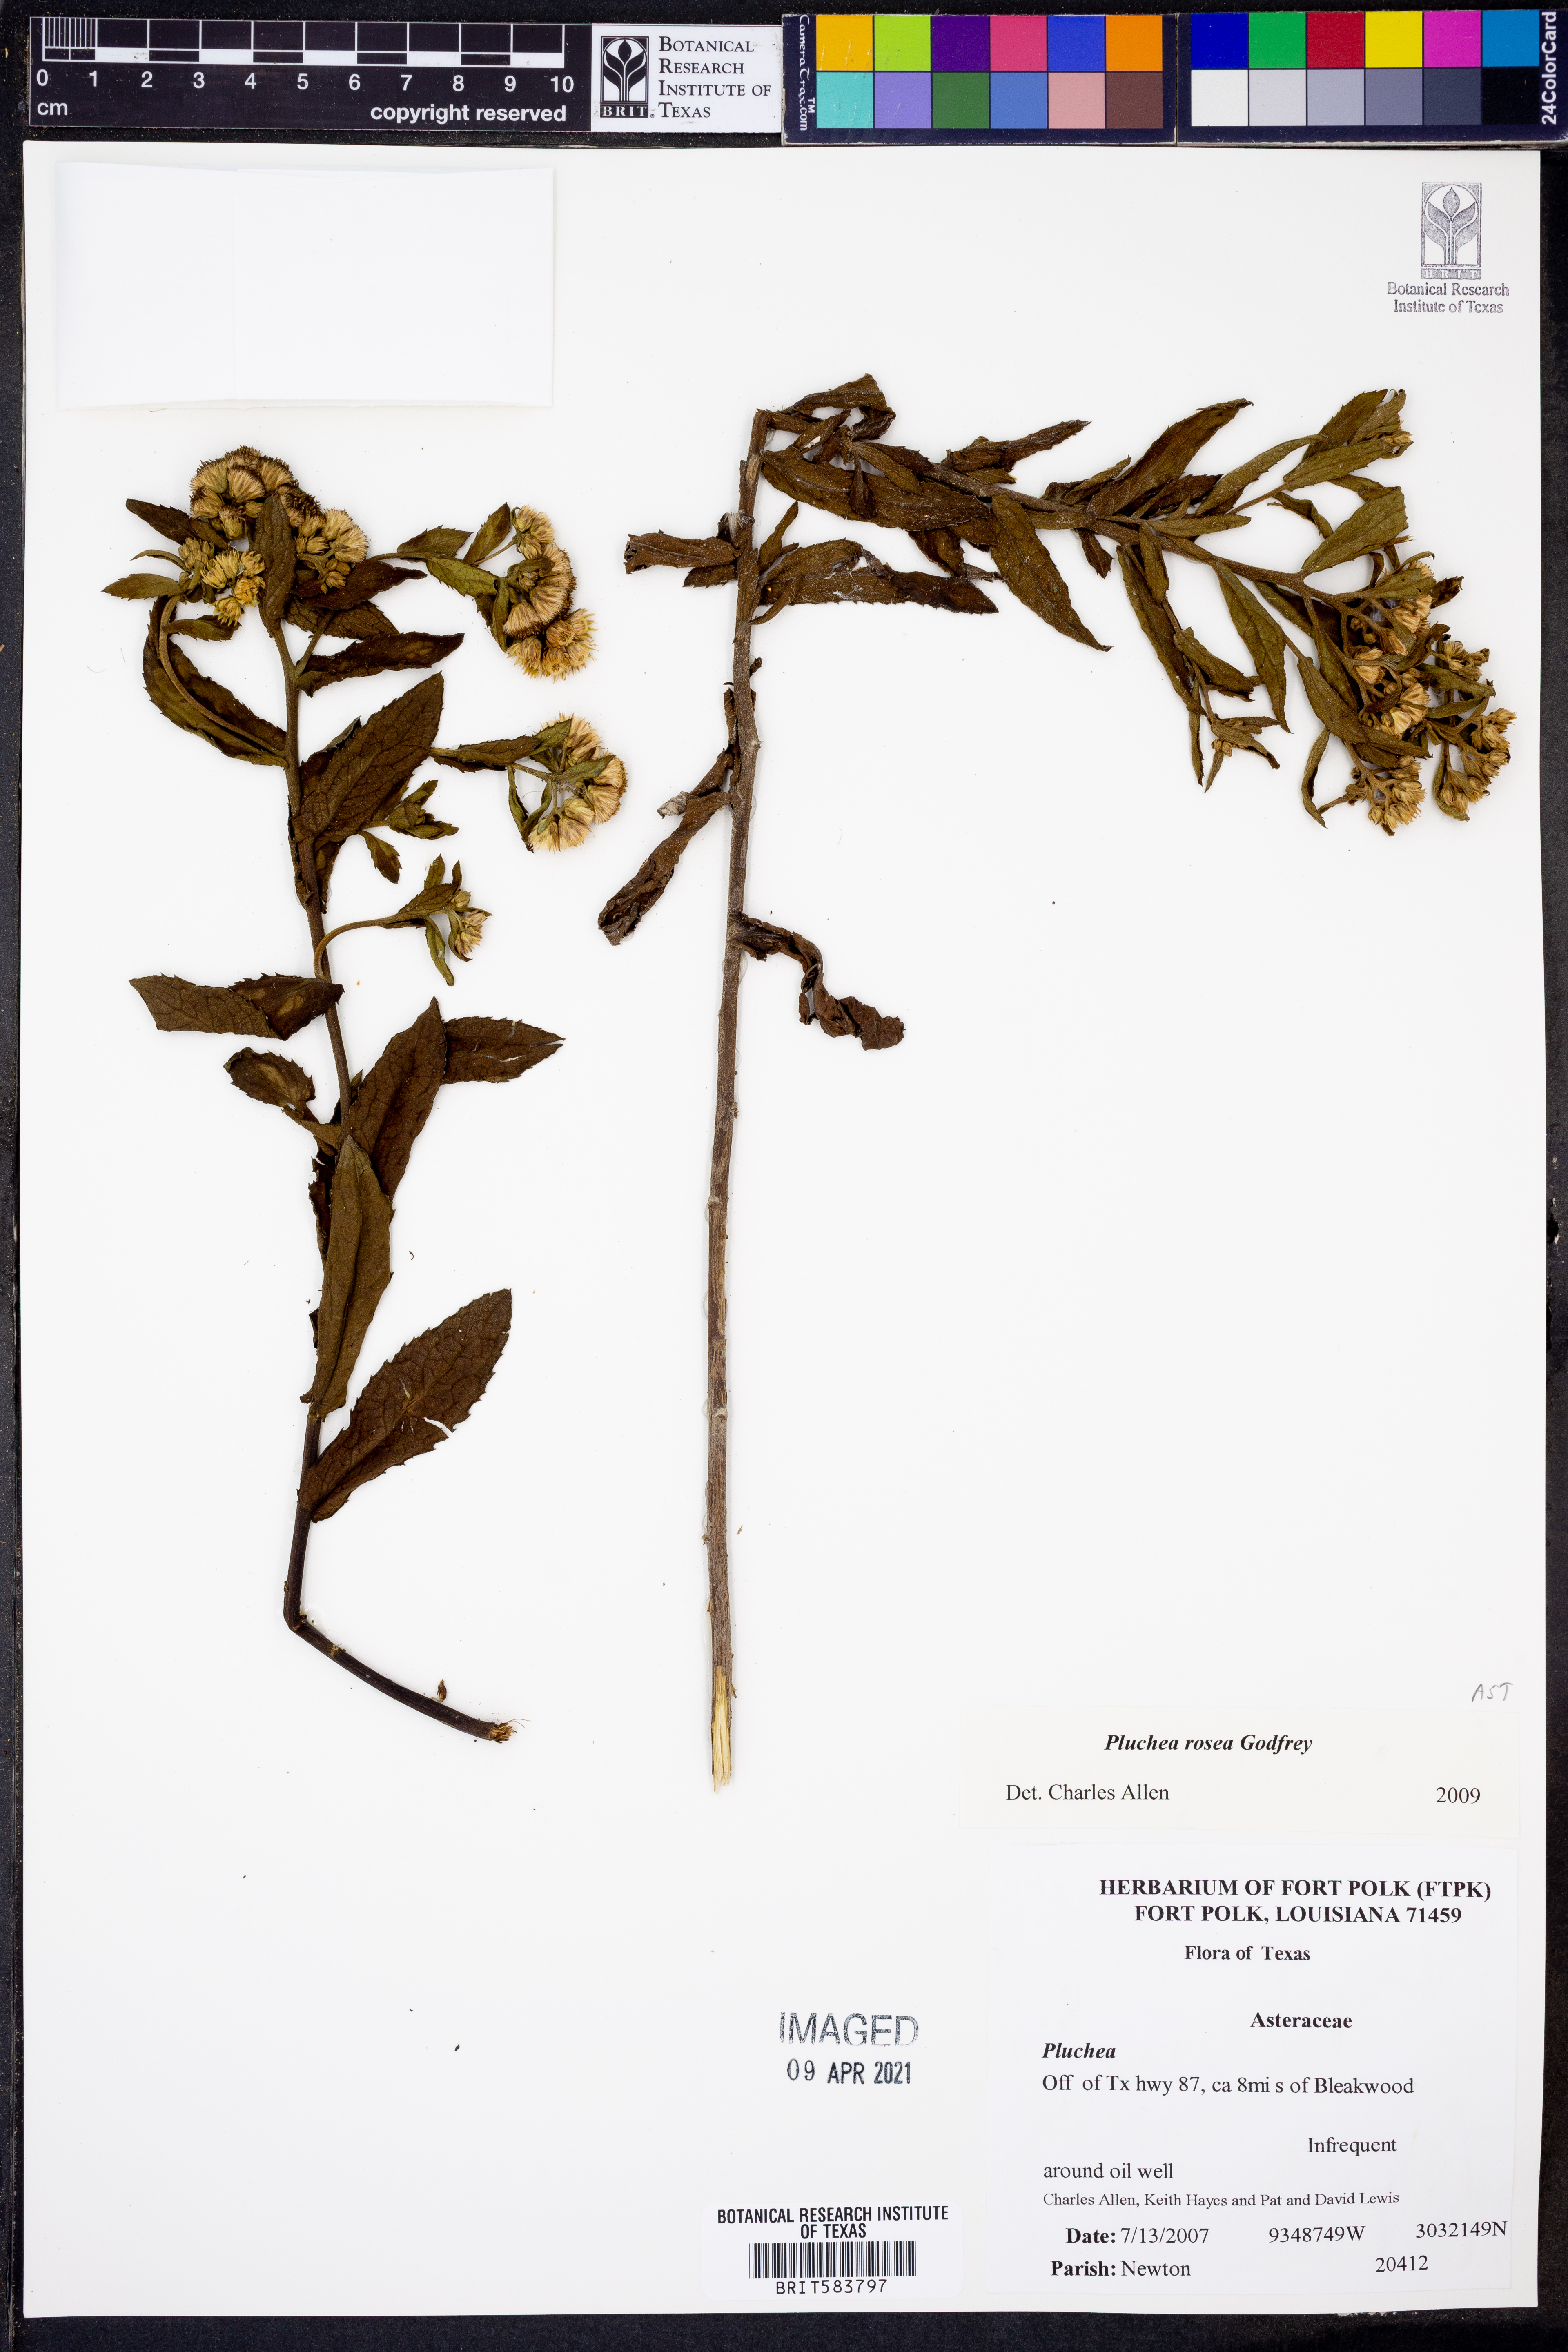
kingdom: Plantae
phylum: Tracheophyta
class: Magnoliopsida
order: Asterales
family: Asteraceae
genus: Pluchea
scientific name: Pluchea baccharis
